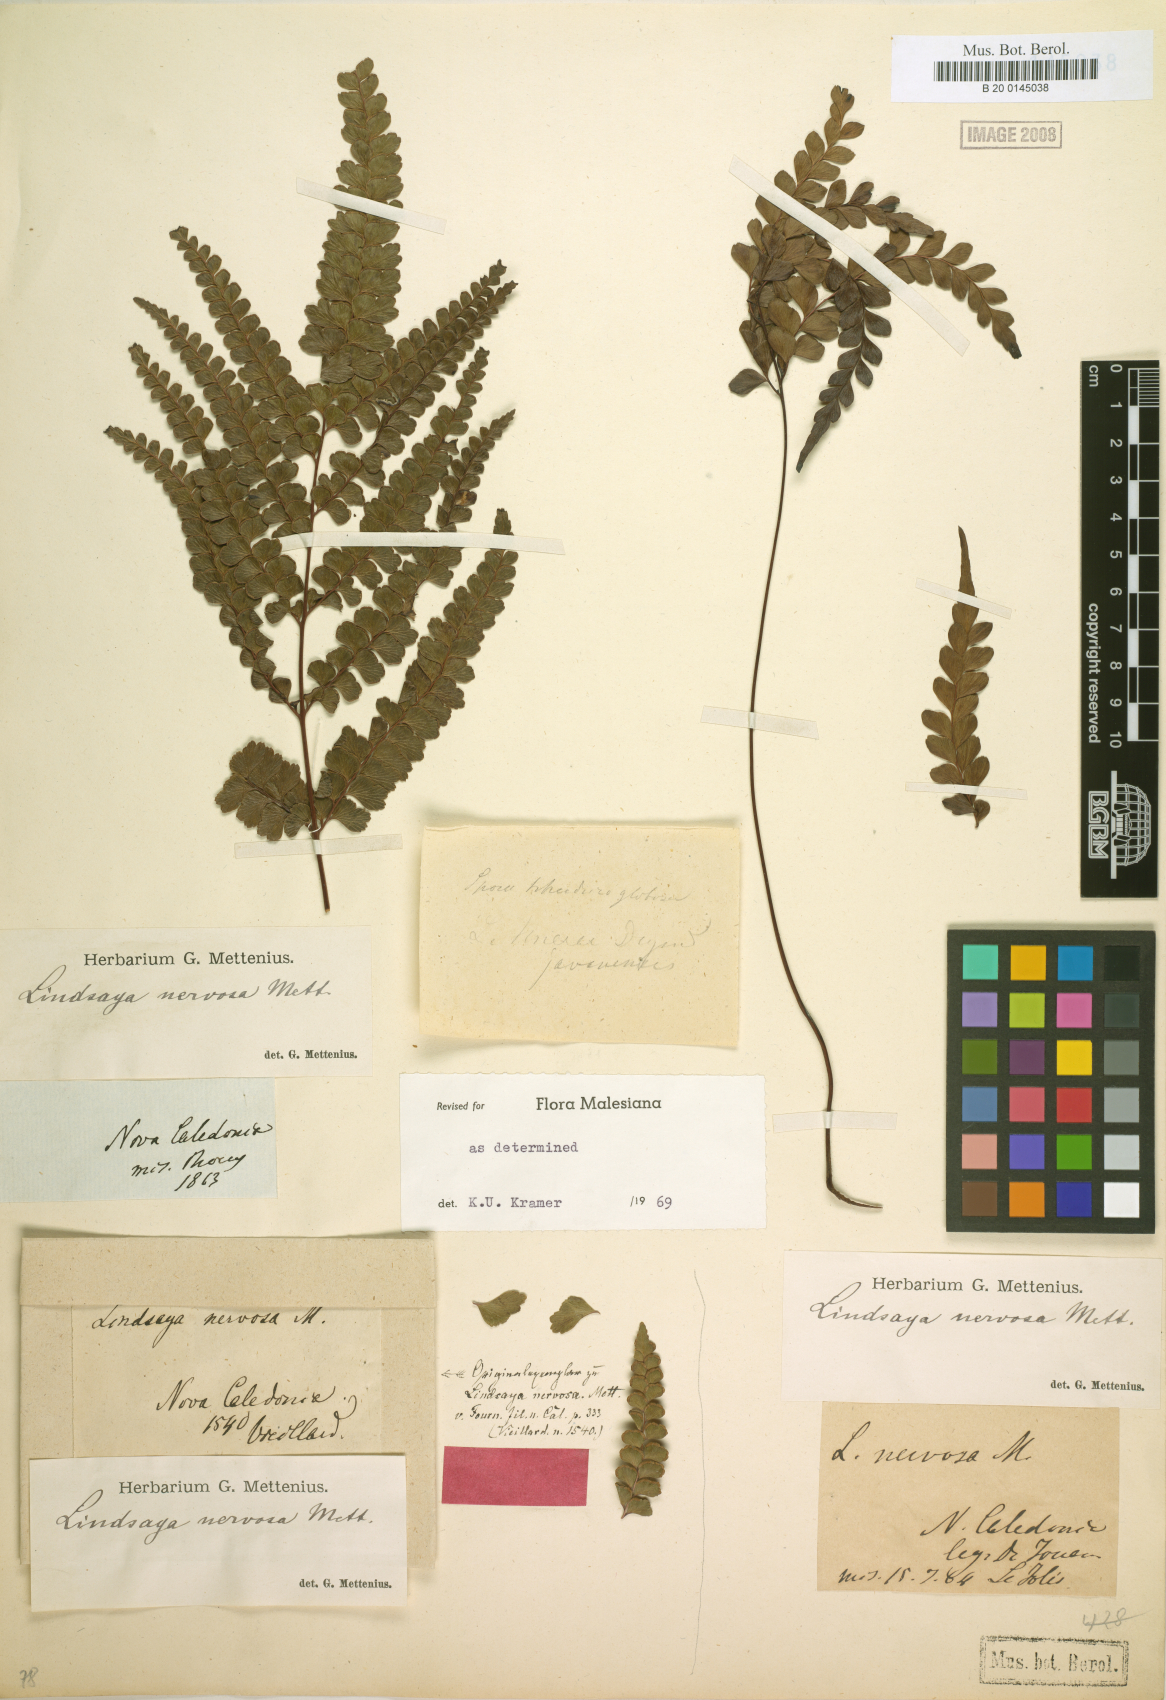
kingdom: Plantae
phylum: Tracheophyta
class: Polypodiopsida
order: Polypodiales
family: Lindsaeaceae
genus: Lindsaea
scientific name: Lindsaea nervosa
